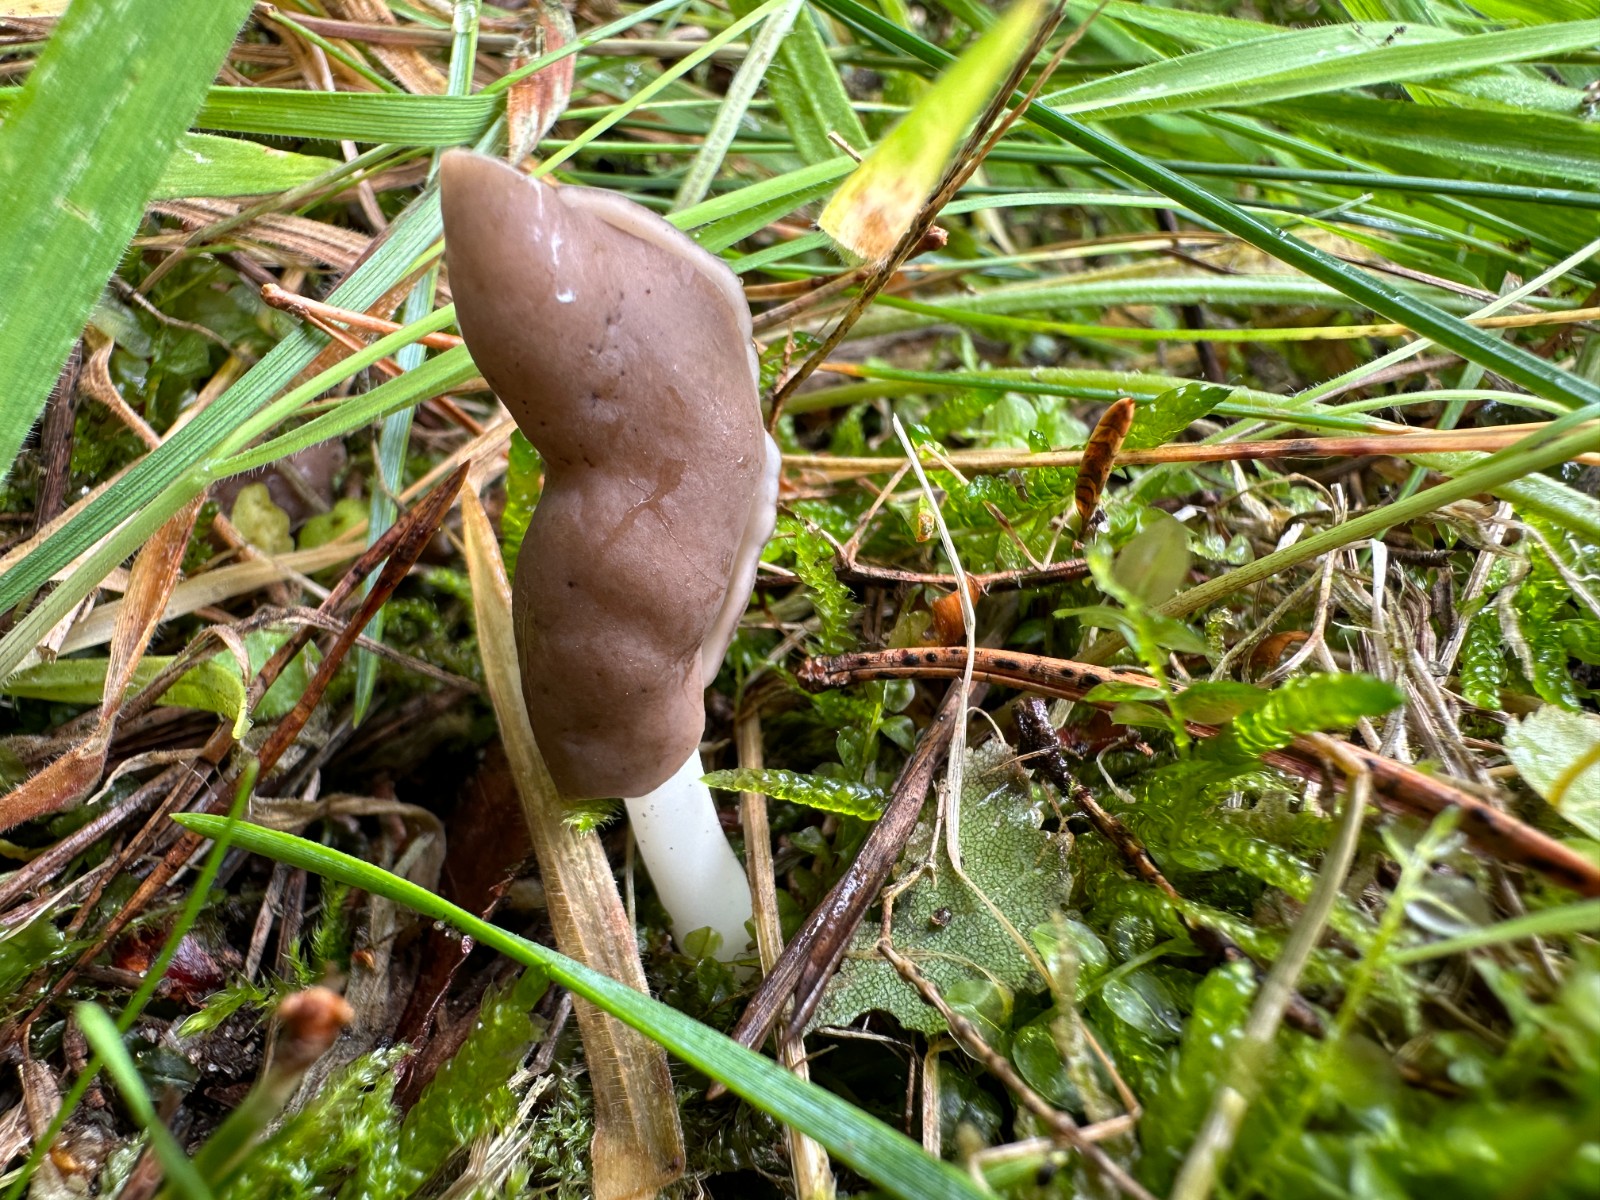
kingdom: Fungi
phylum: Ascomycota
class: Pezizomycetes
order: Pezizales
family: Helvellaceae
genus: Helvella
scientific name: Helvella elastica
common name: elastik-foldhat
